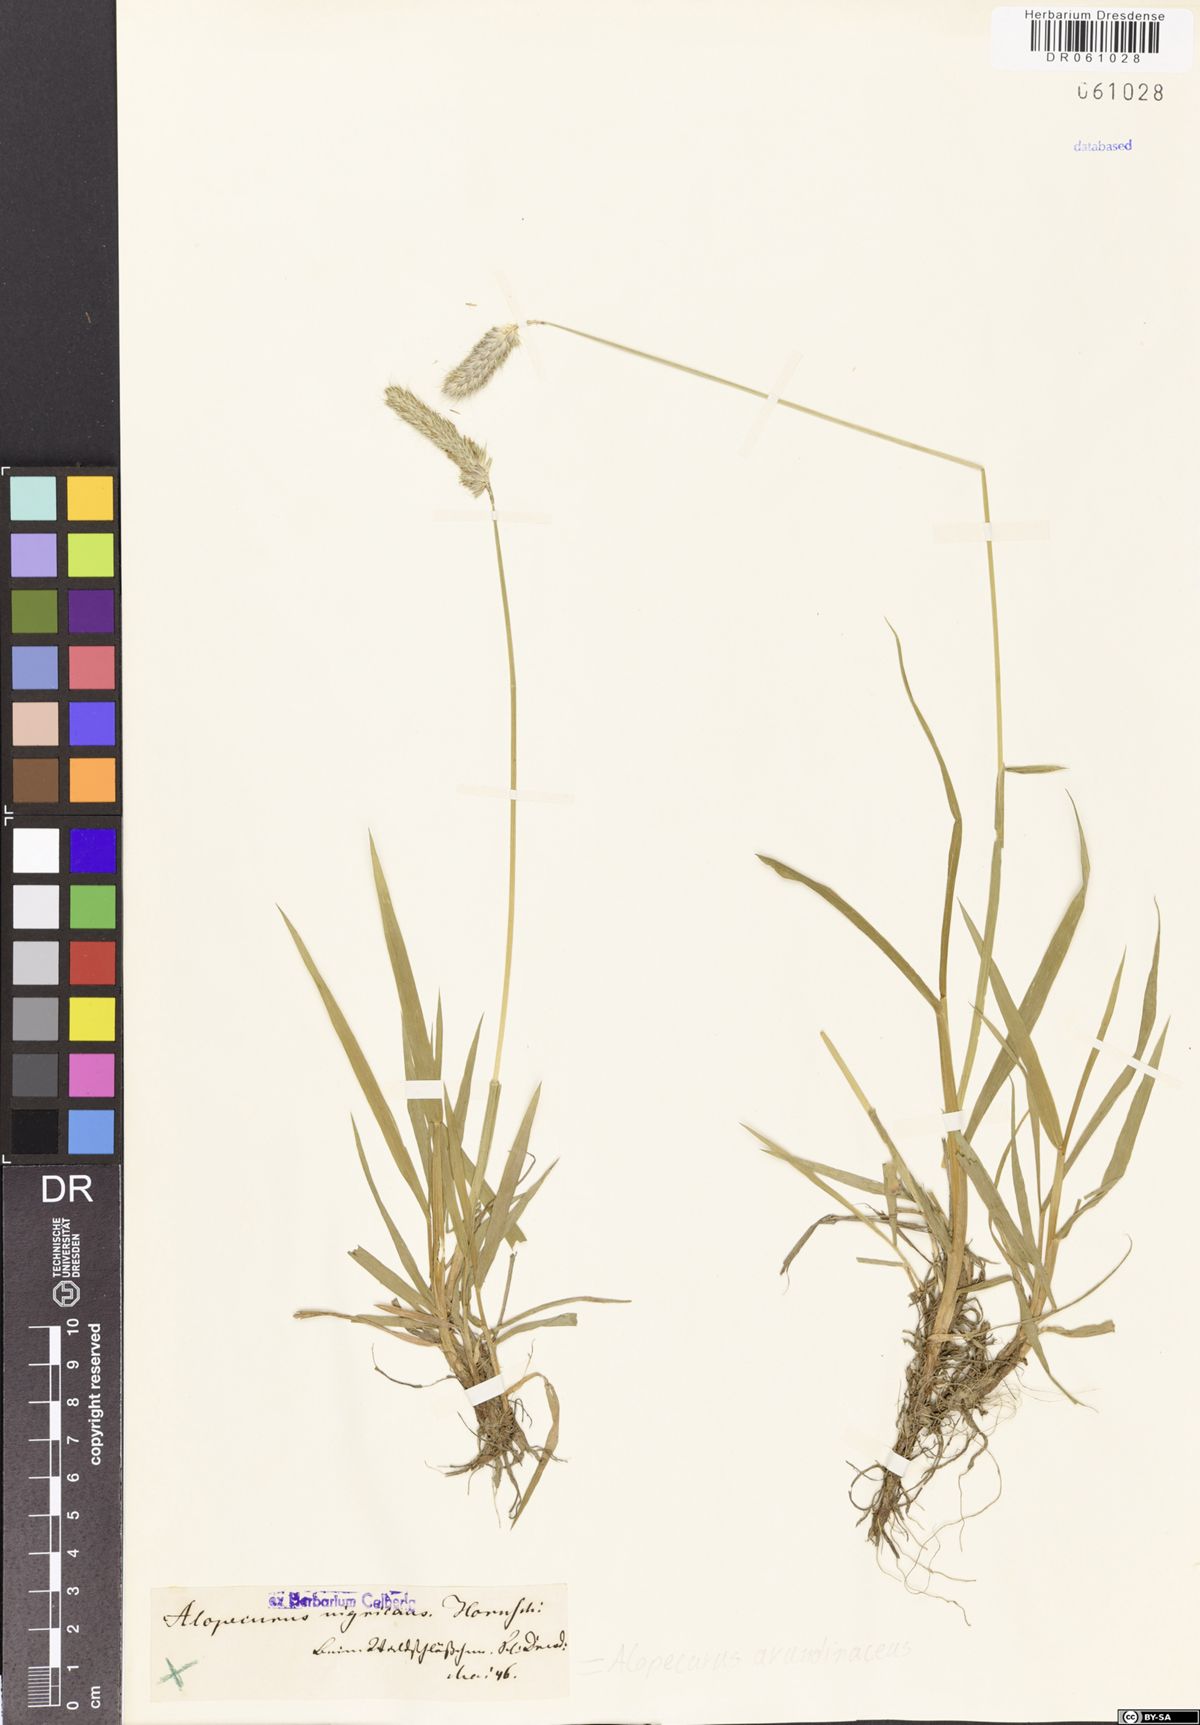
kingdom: Plantae
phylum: Tracheophyta
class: Liliopsida
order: Poales
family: Poaceae
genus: Alopecurus
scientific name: Alopecurus arundinaceus
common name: Creeping meadow foxtail
